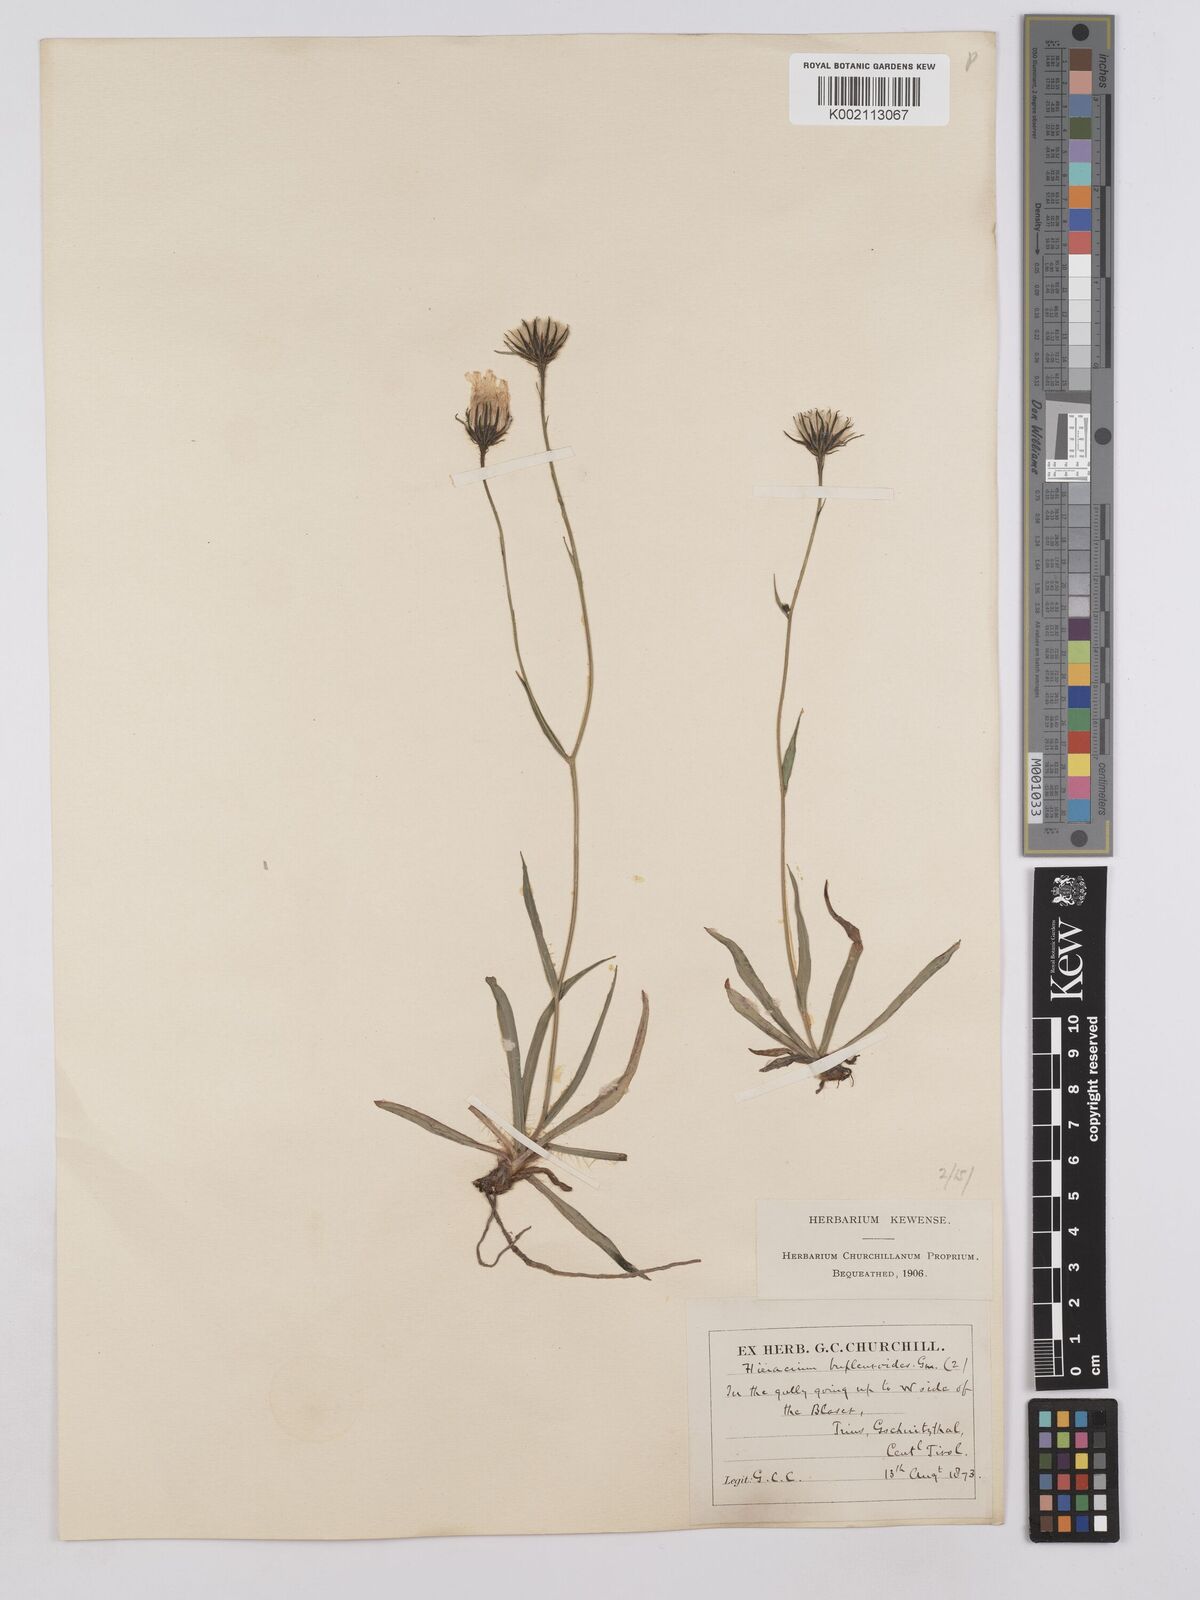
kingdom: Plantae
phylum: Tracheophyta
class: Magnoliopsida
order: Asterales
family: Asteraceae
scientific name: Asteraceae
